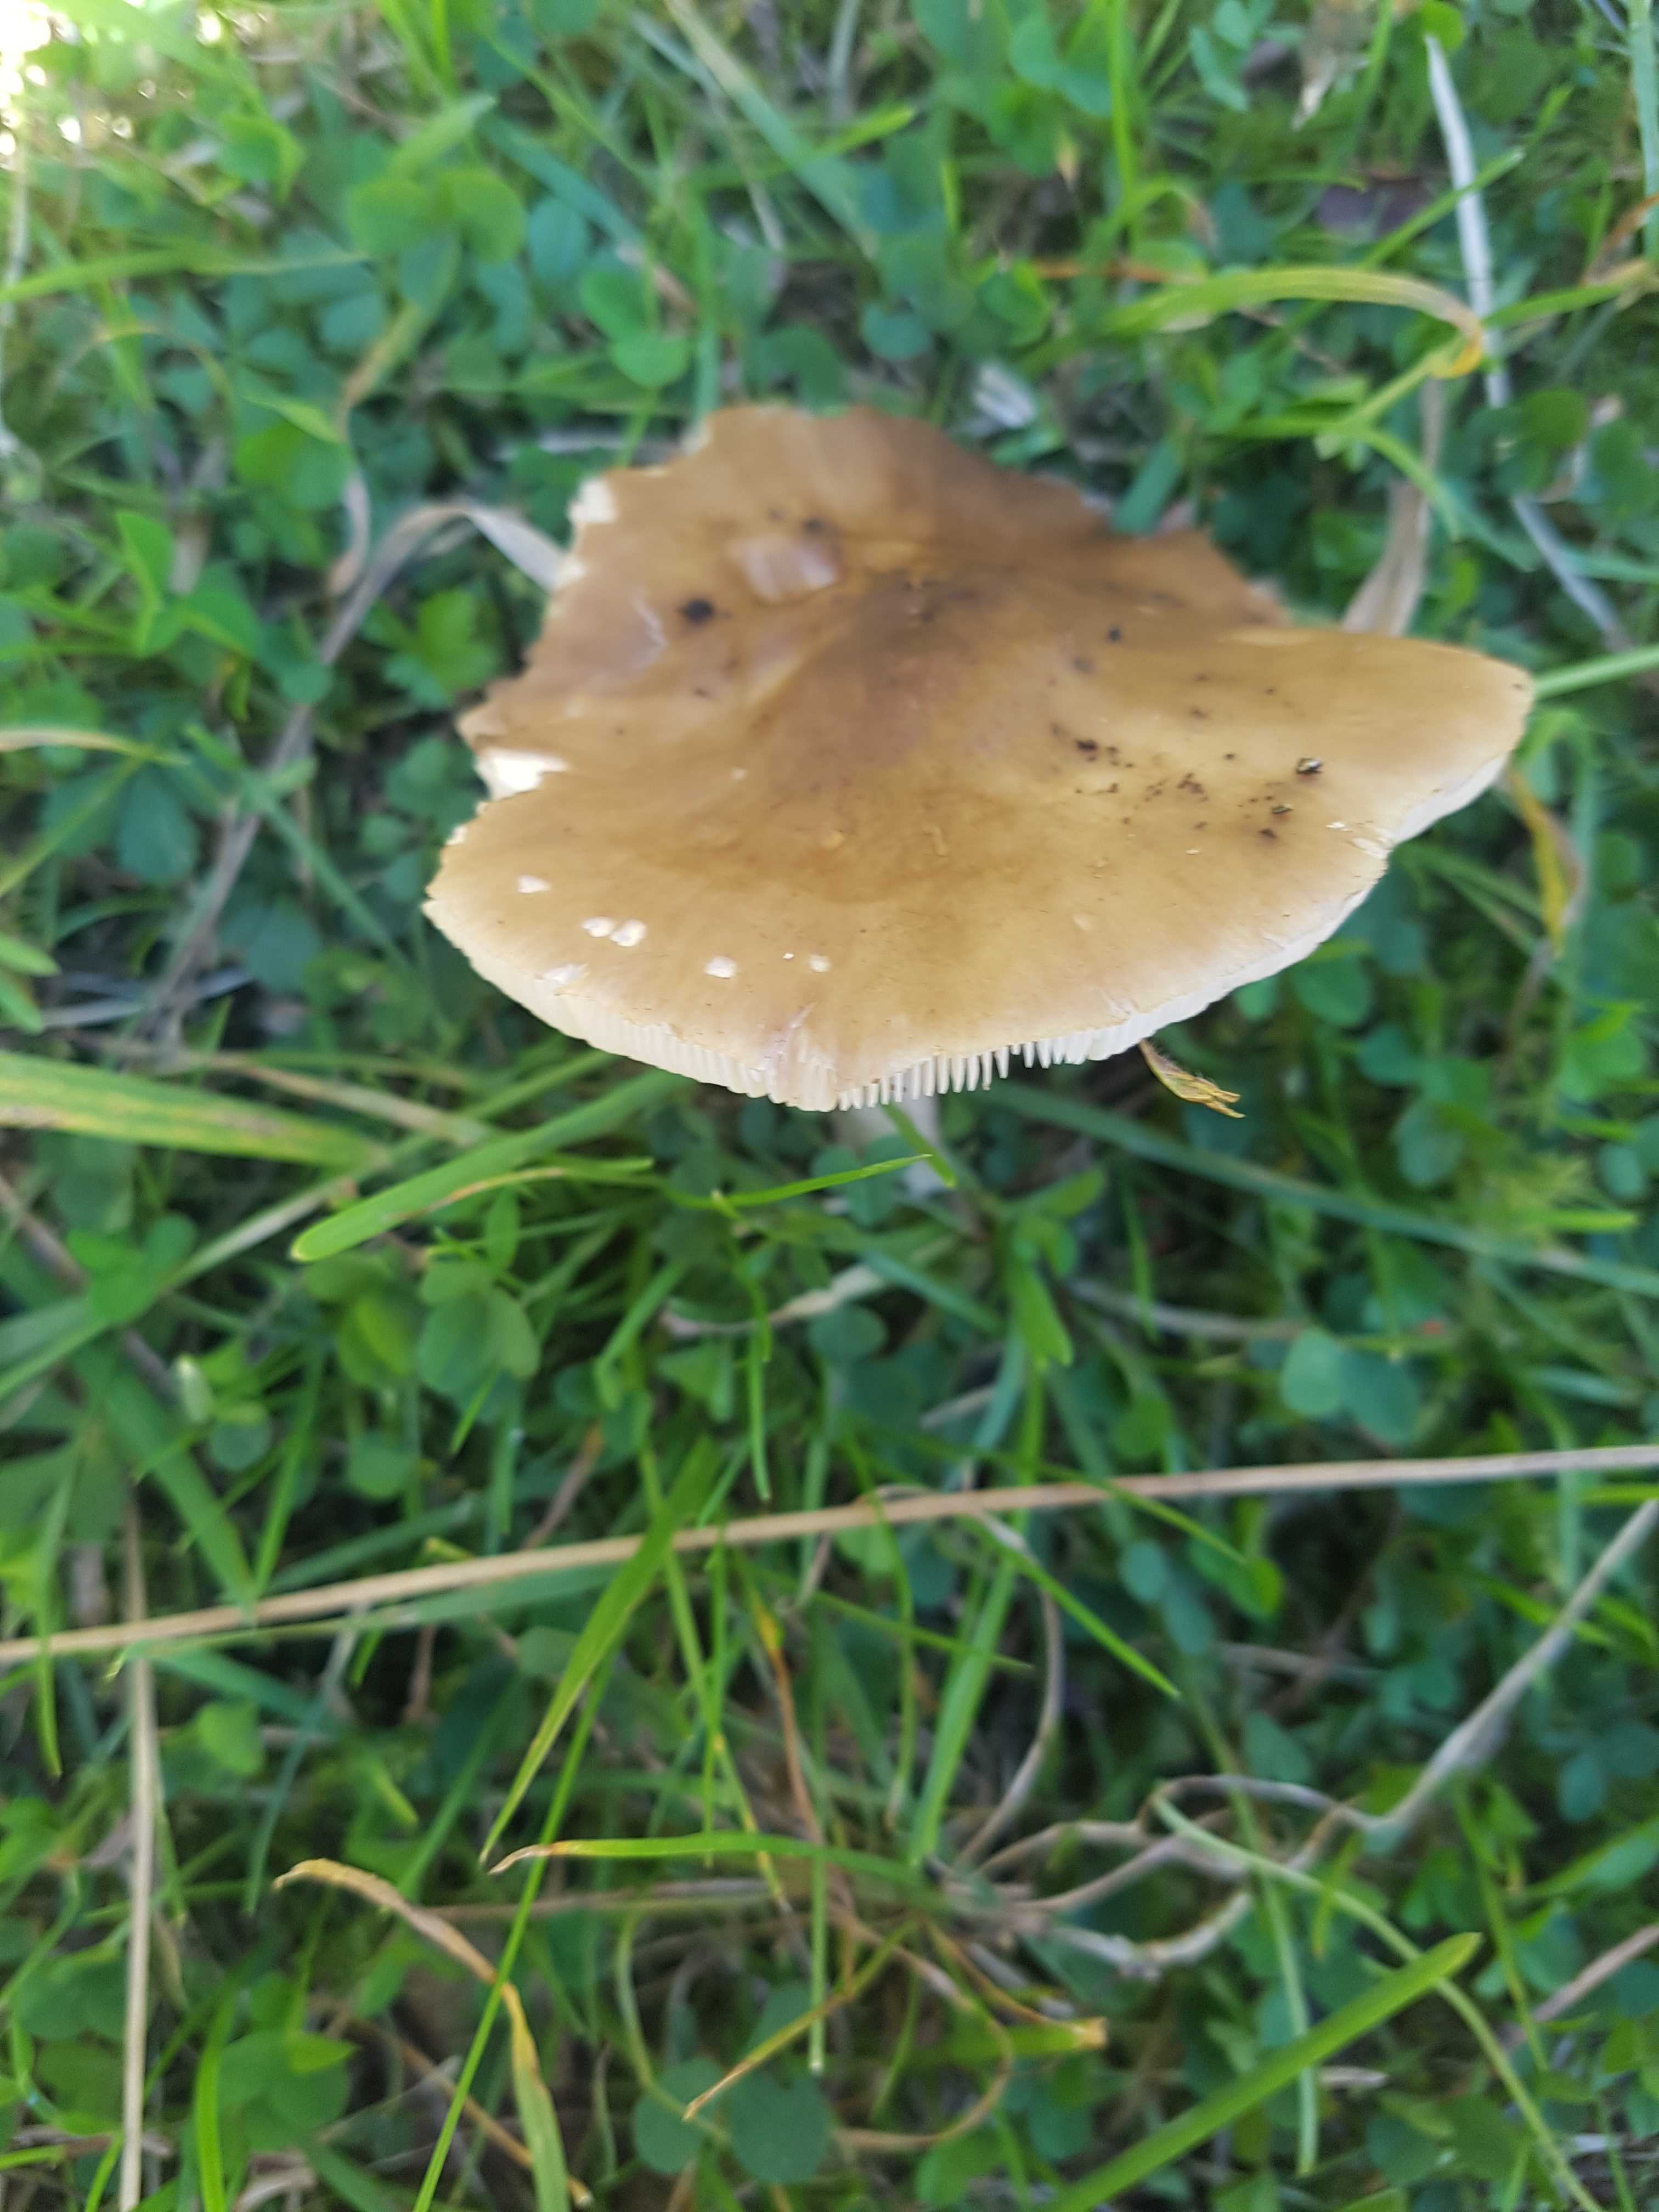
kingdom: Fungi
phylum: Basidiomycota
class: Agaricomycetes
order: Agaricales
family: Tricholomataceae
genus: Melanoleuca
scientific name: Melanoleuca
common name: munkehat
